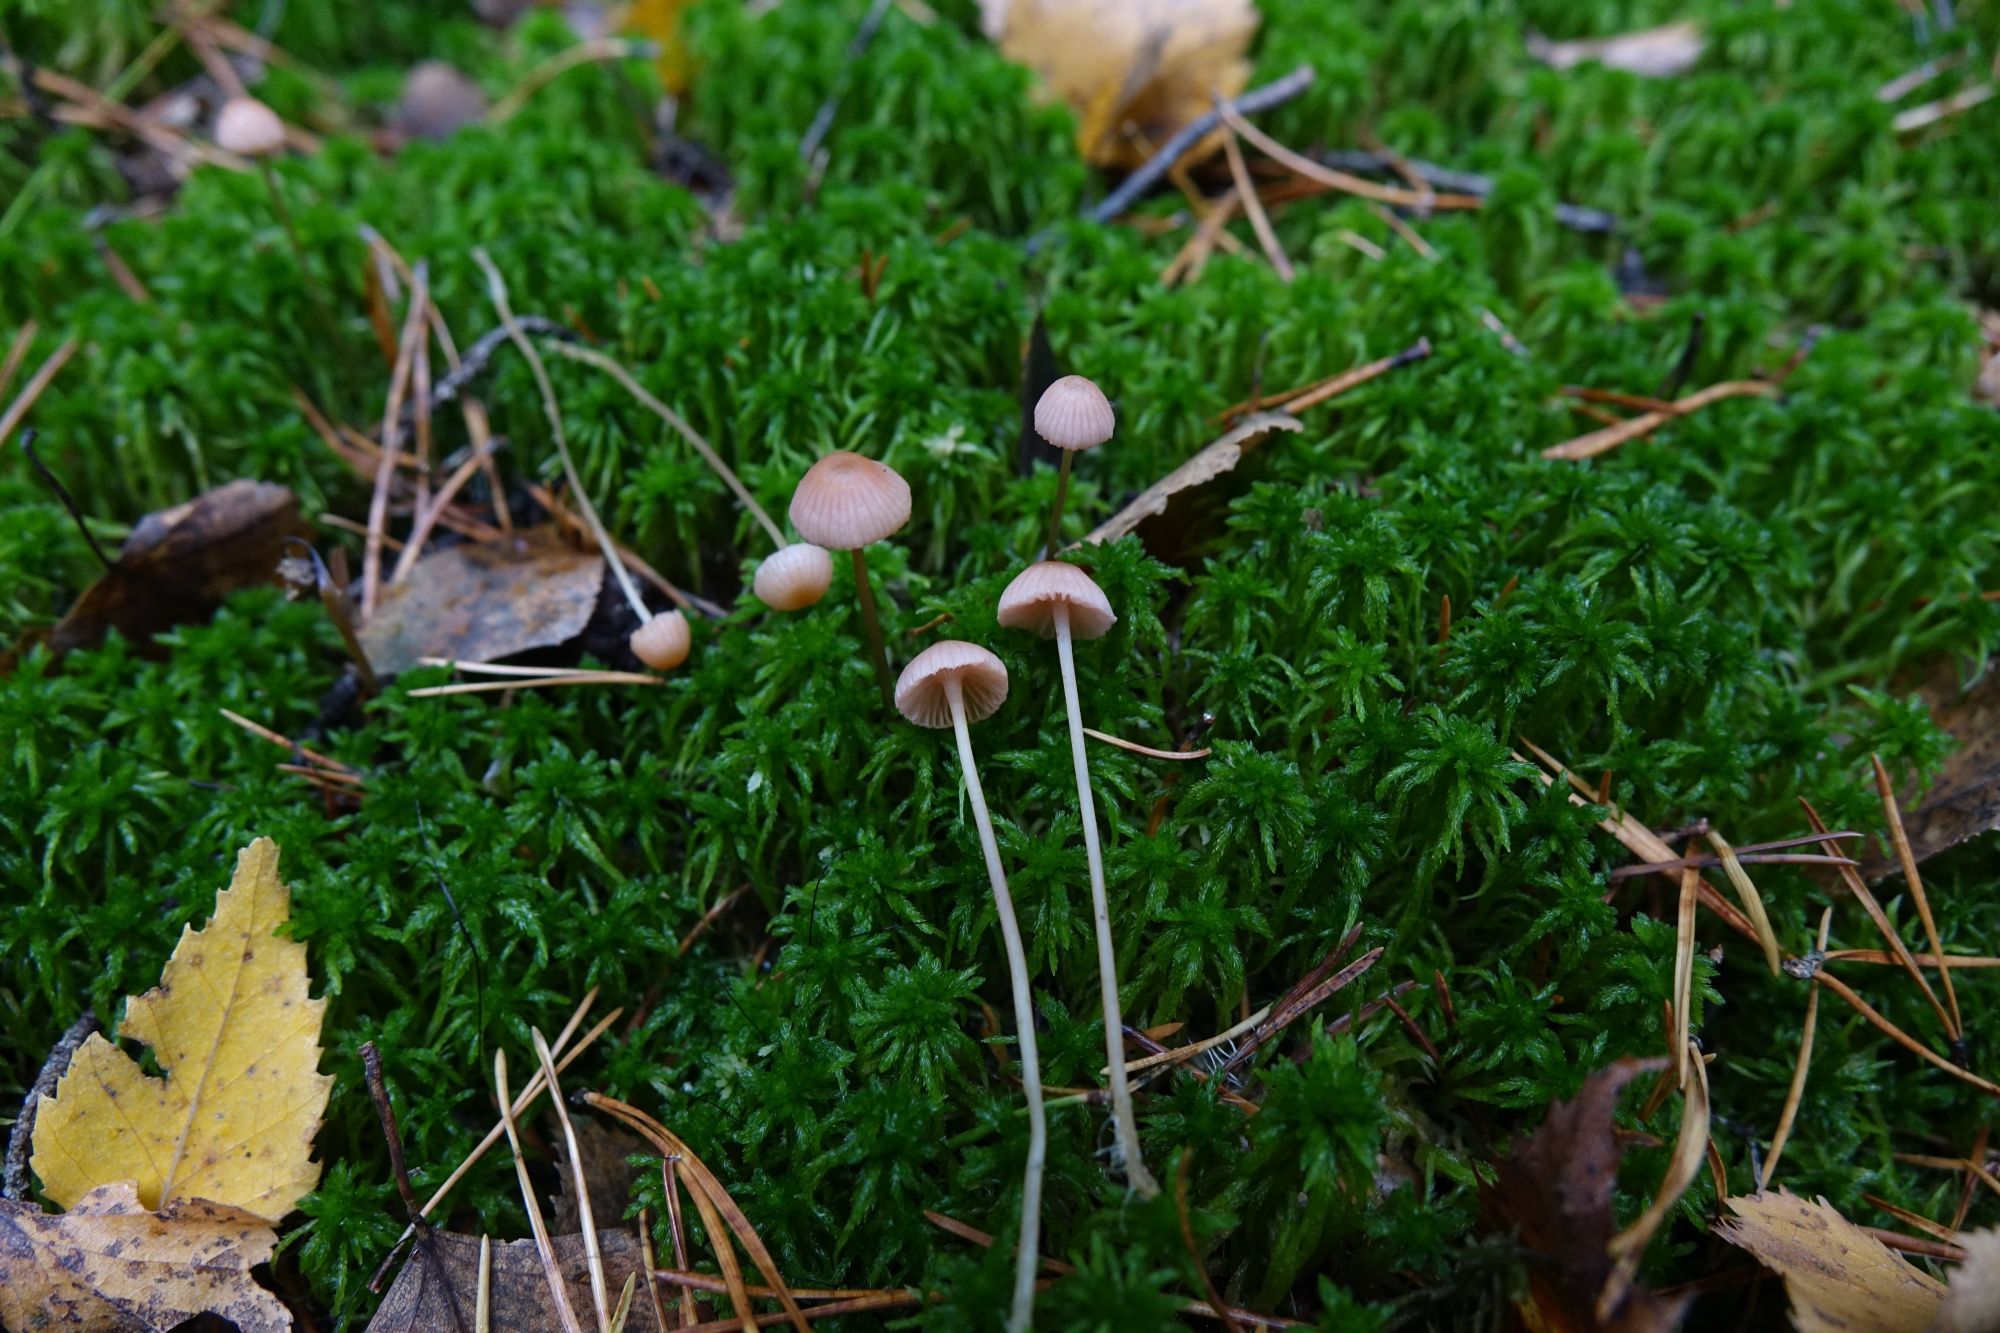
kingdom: Fungi
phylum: Basidiomycota
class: Agaricomycetes
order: Agaricales
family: Mycenaceae
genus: Mycena
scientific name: Mycena rosella
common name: Pink bonnet
